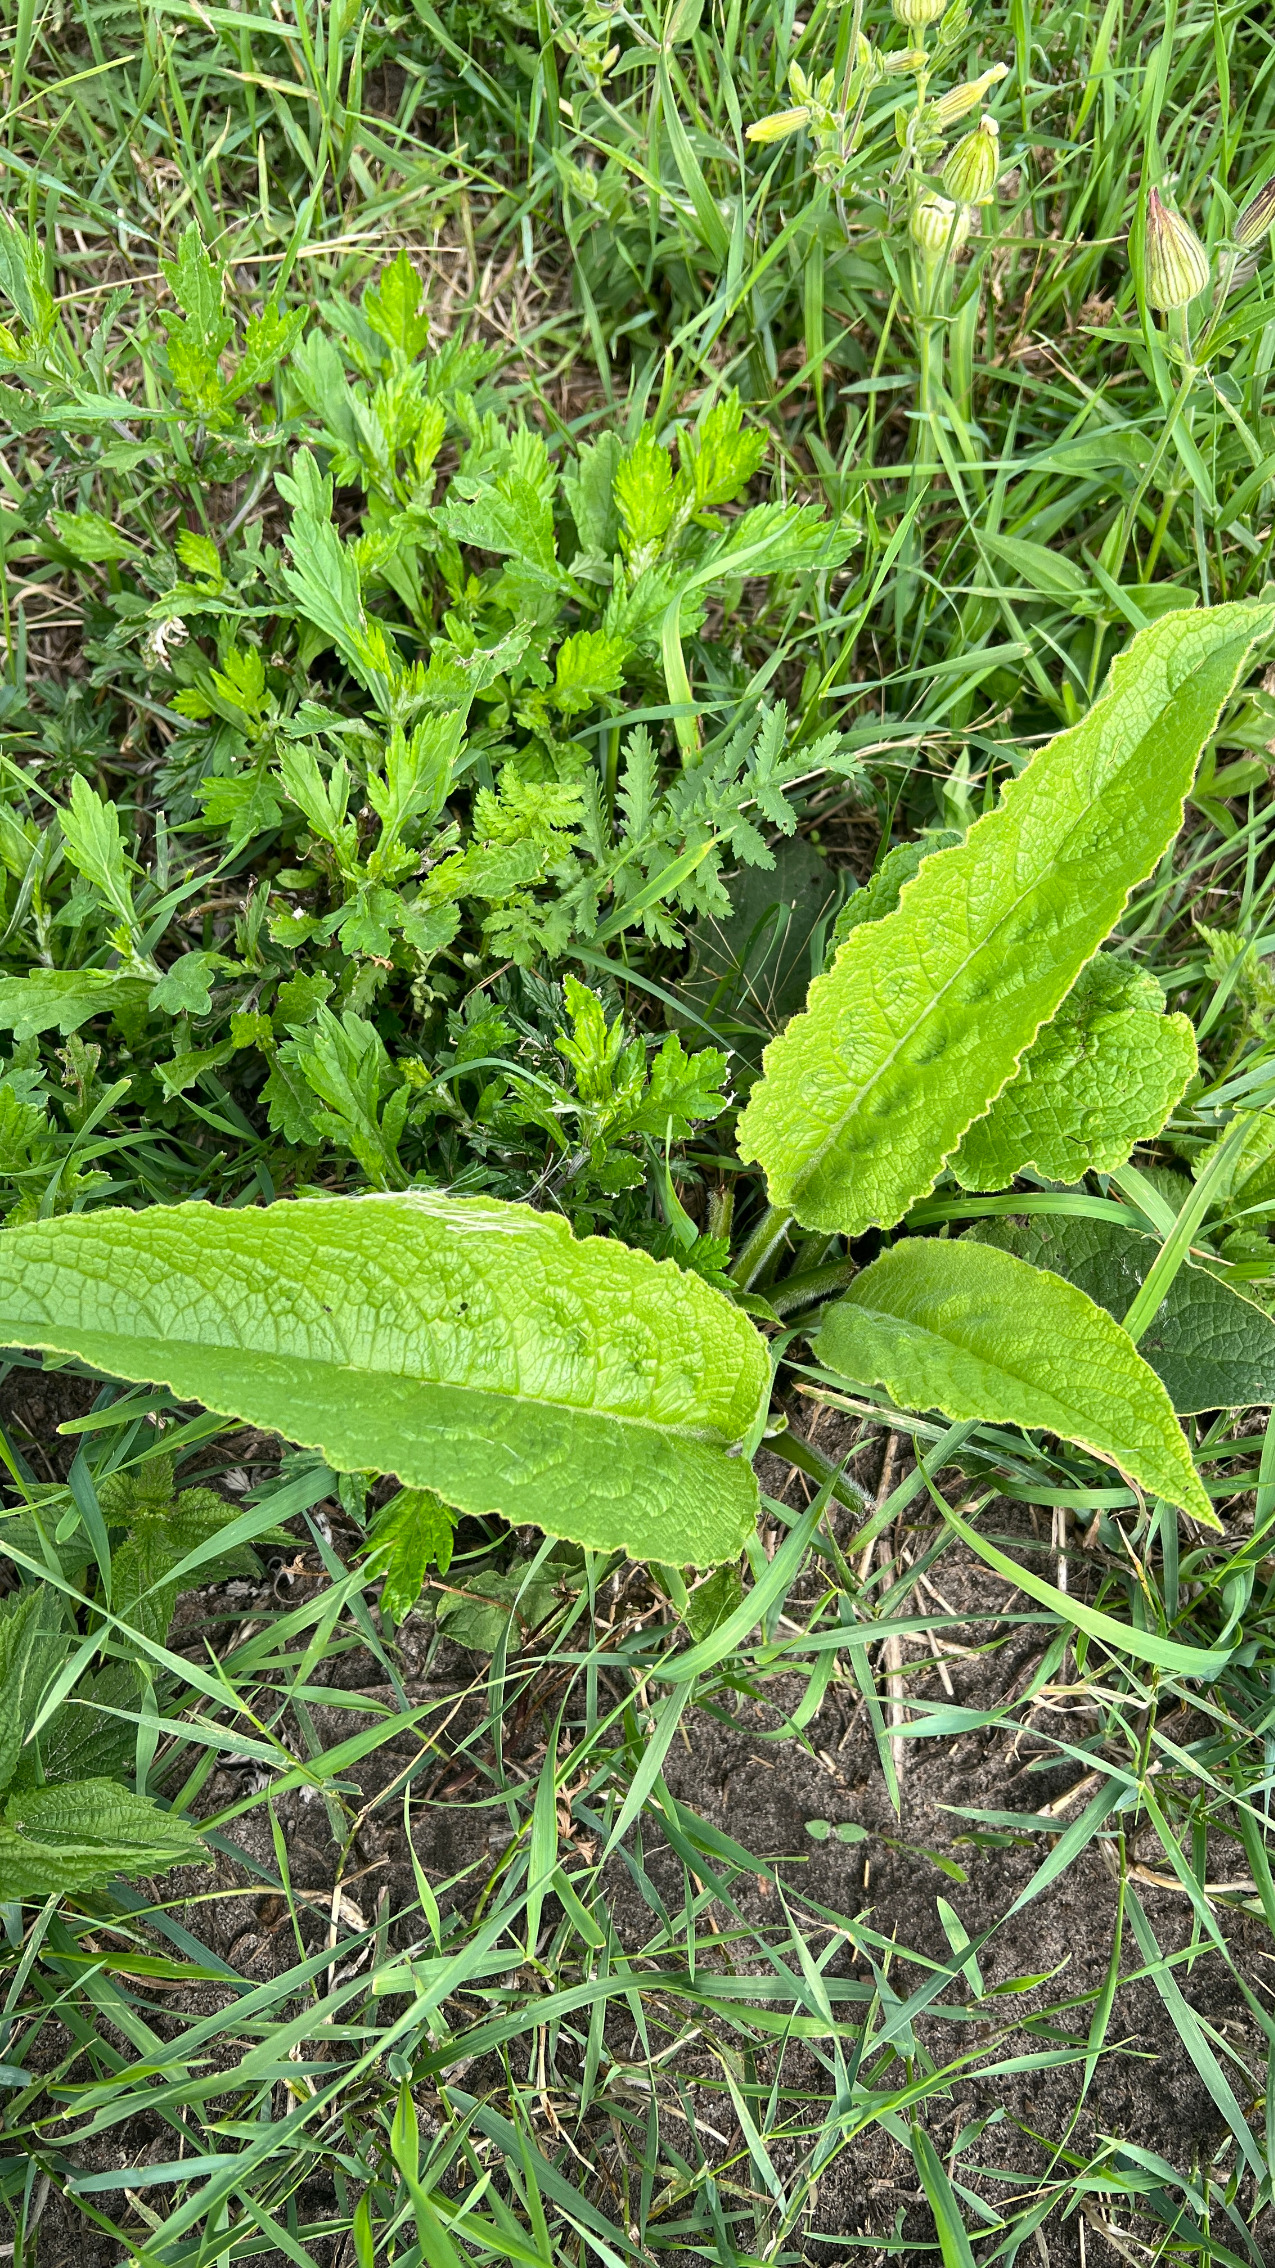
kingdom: Plantae
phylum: Tracheophyta
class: Magnoliopsida
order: Boraginales
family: Boraginaceae
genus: Symphytum
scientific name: Symphytum
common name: Kulsukkerslægten
